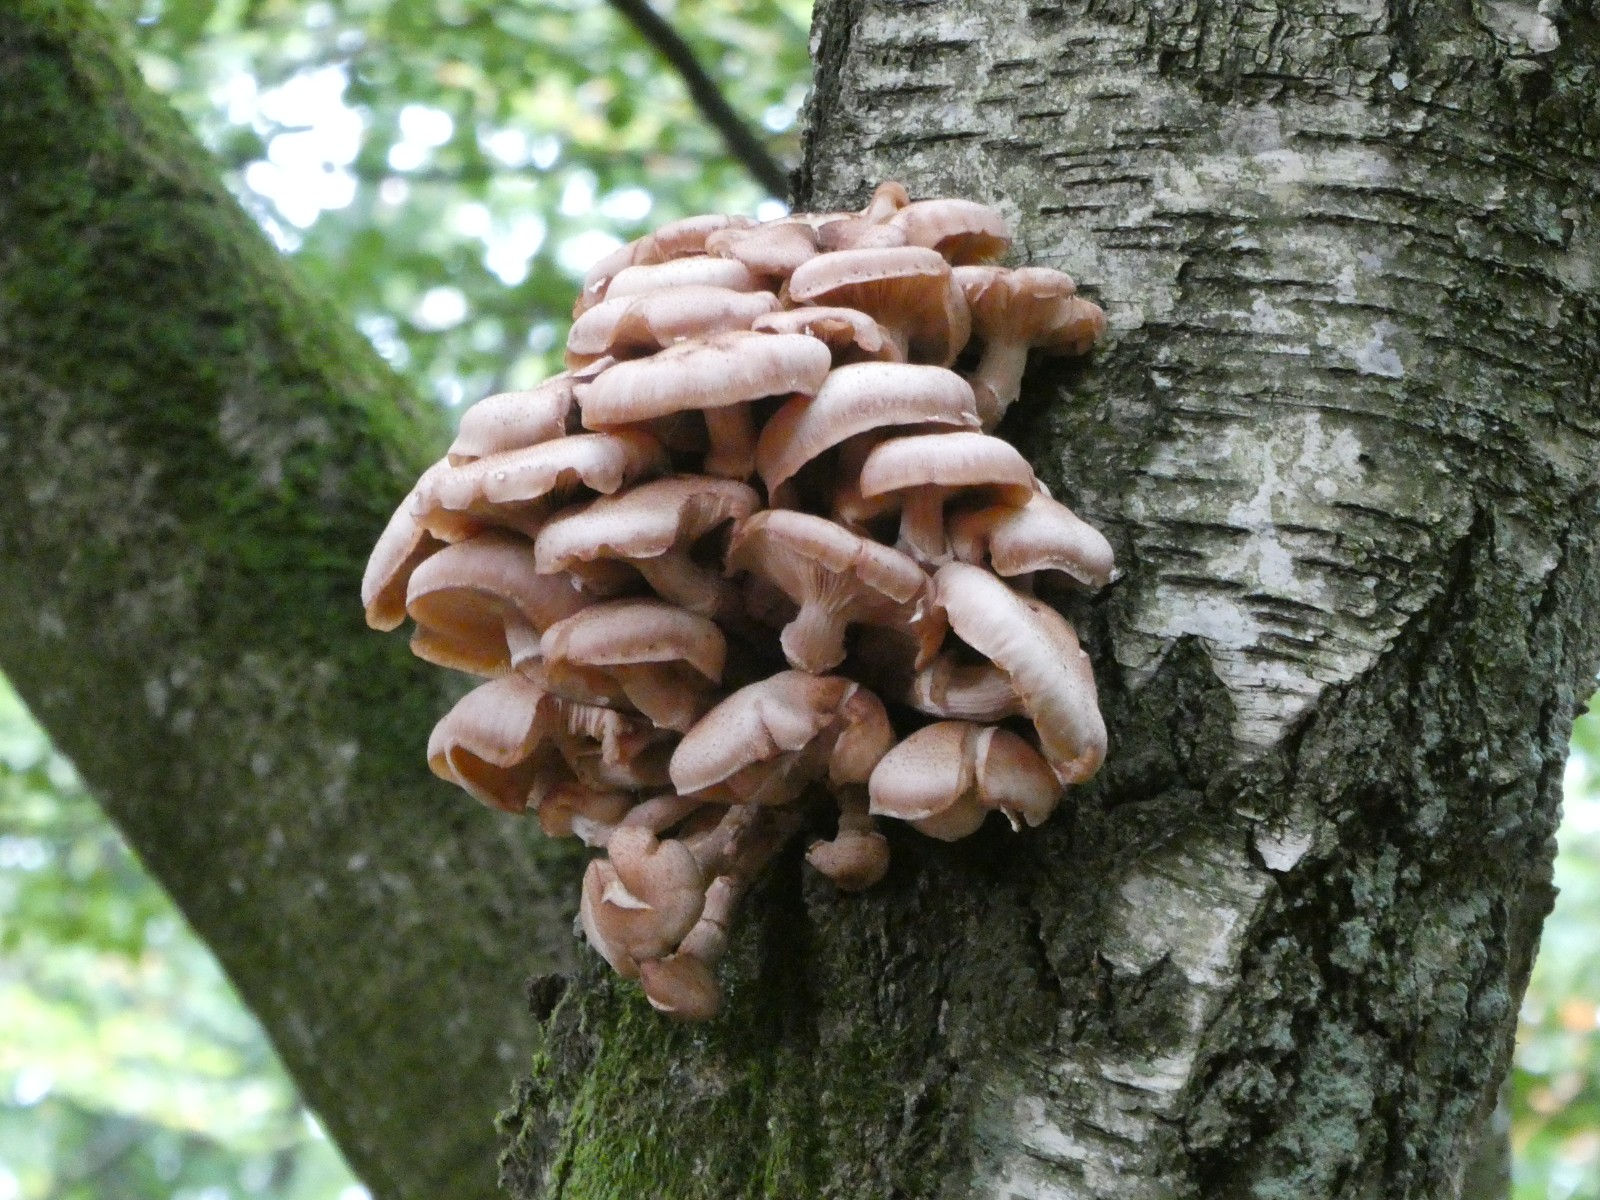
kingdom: Fungi
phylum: Basidiomycota
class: Agaricomycetes
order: Agaricales
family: Physalacriaceae
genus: Armillaria
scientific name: Armillaria
